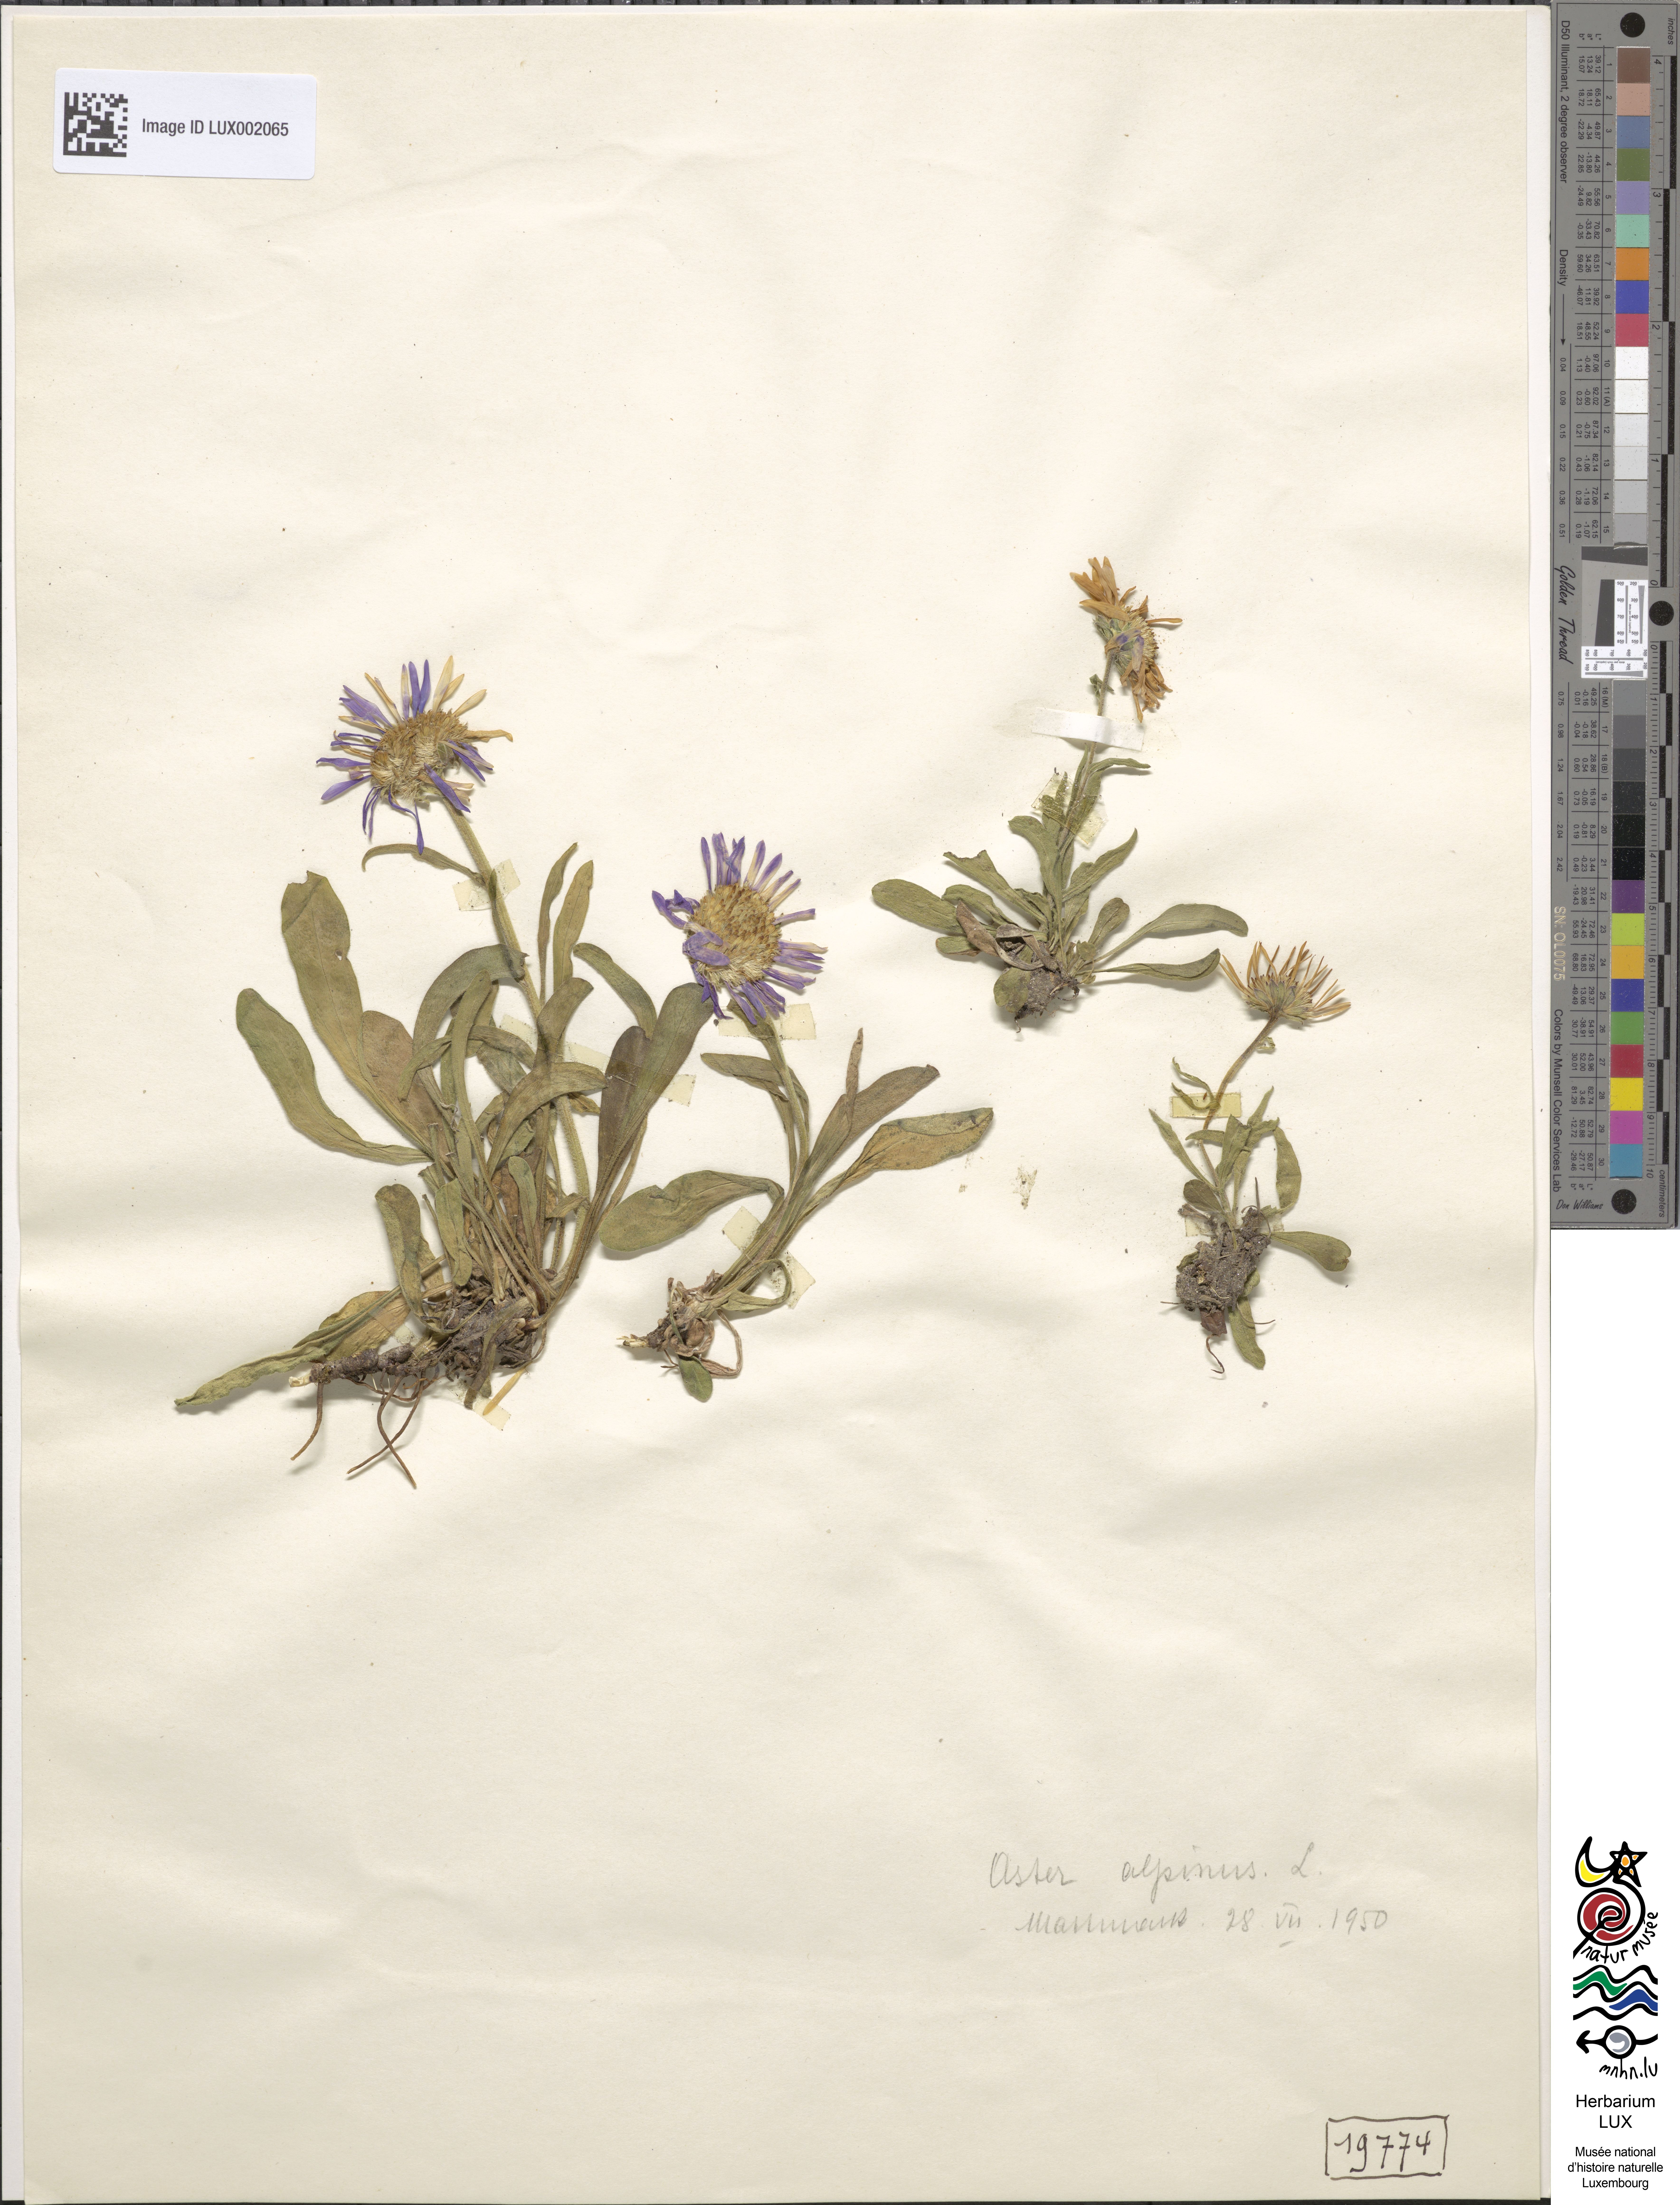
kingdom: Plantae
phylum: Tracheophyta
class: Magnoliopsida
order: Asterales
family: Asteraceae
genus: Aster
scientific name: Aster alpinus
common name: Alpine aster
